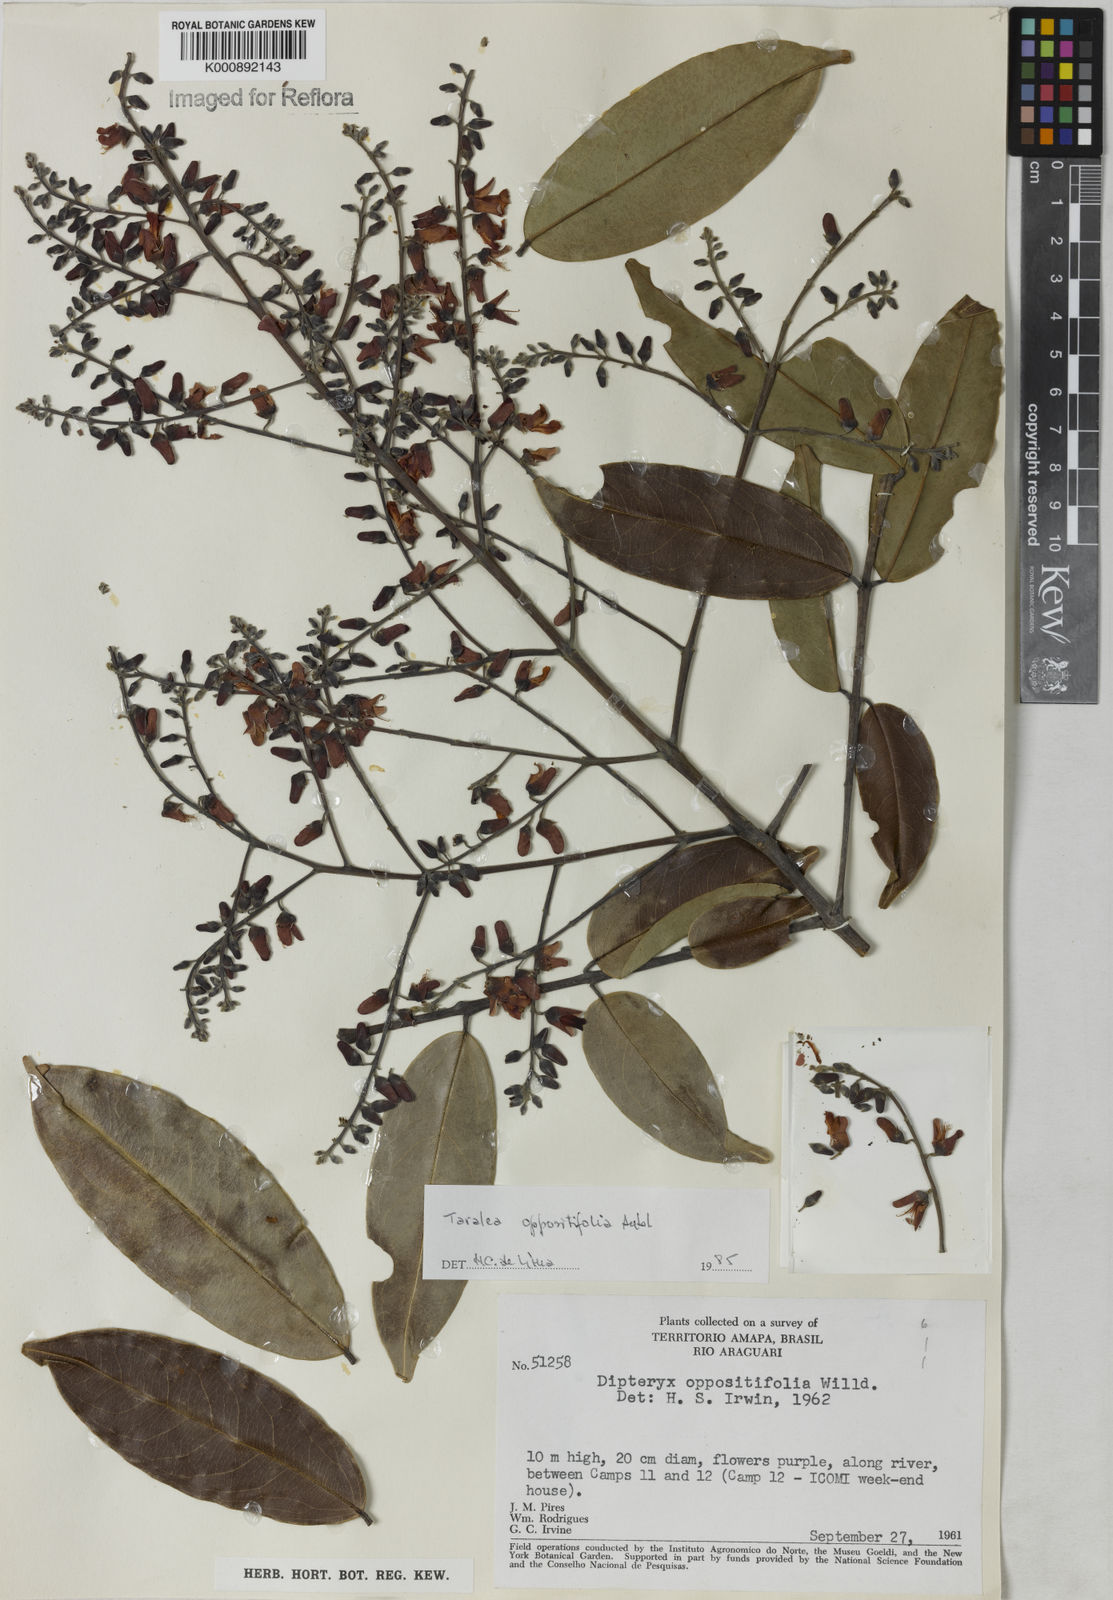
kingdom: Plantae
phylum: Tracheophyta
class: Magnoliopsida
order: Fabales
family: Fabaceae
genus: Taralea
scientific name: Taralea oppositifolia
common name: Tonka
